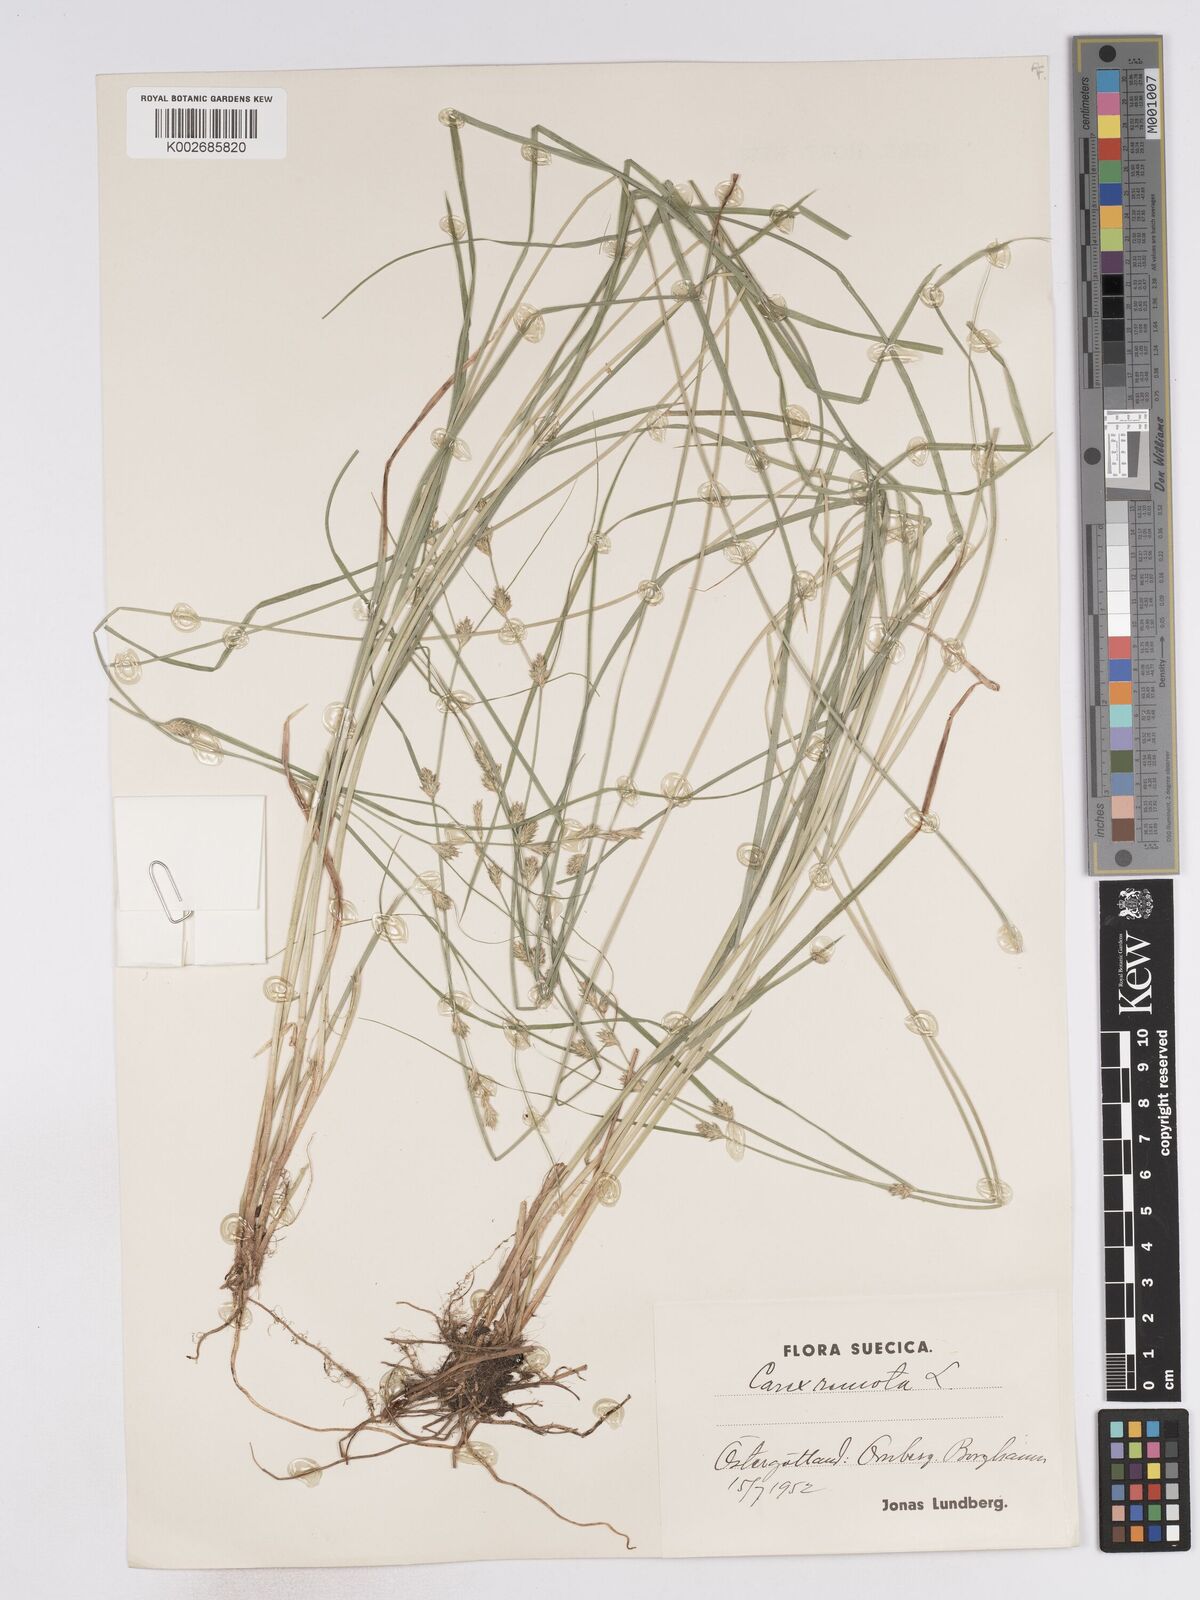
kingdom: Plantae
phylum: Tracheophyta
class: Liliopsida
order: Poales
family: Cyperaceae
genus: Carex
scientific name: Carex remota
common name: Remote sedge
